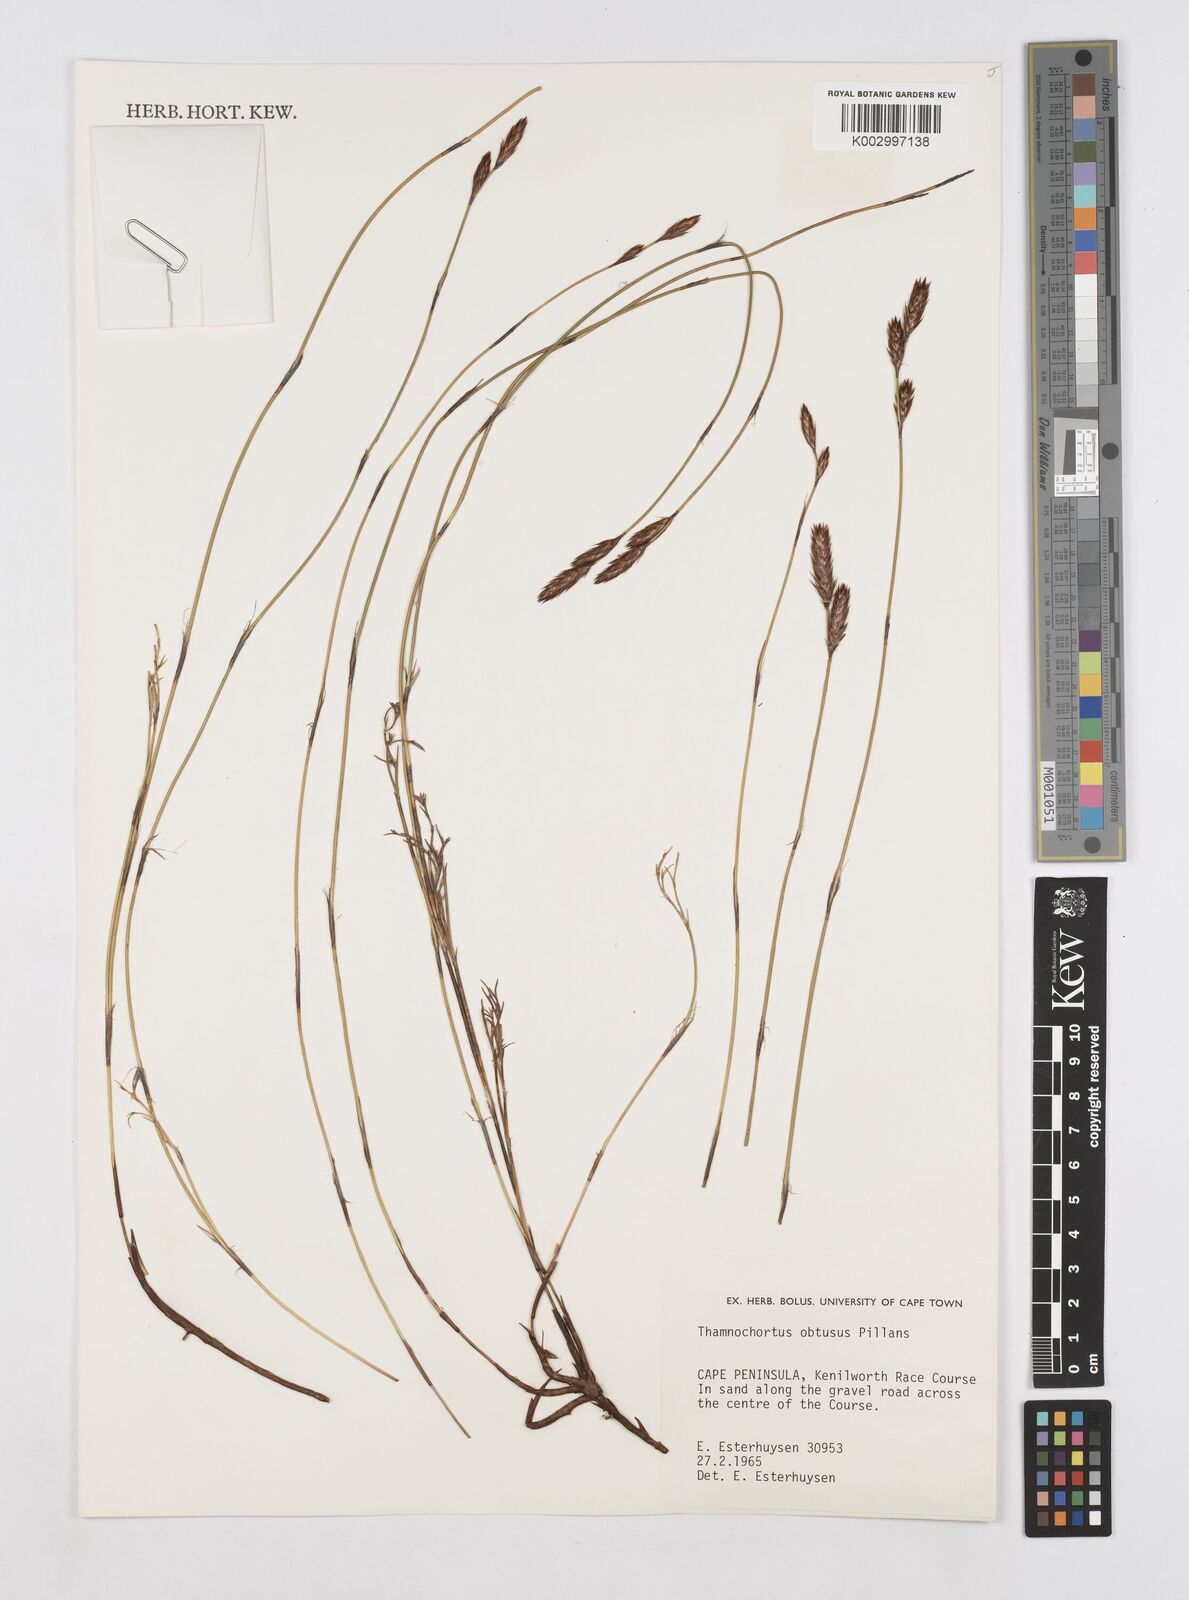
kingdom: Plantae
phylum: Tracheophyta
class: Liliopsida
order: Poales
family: Restionaceae
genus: Thamnochortus
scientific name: Thamnochortus obtusus
